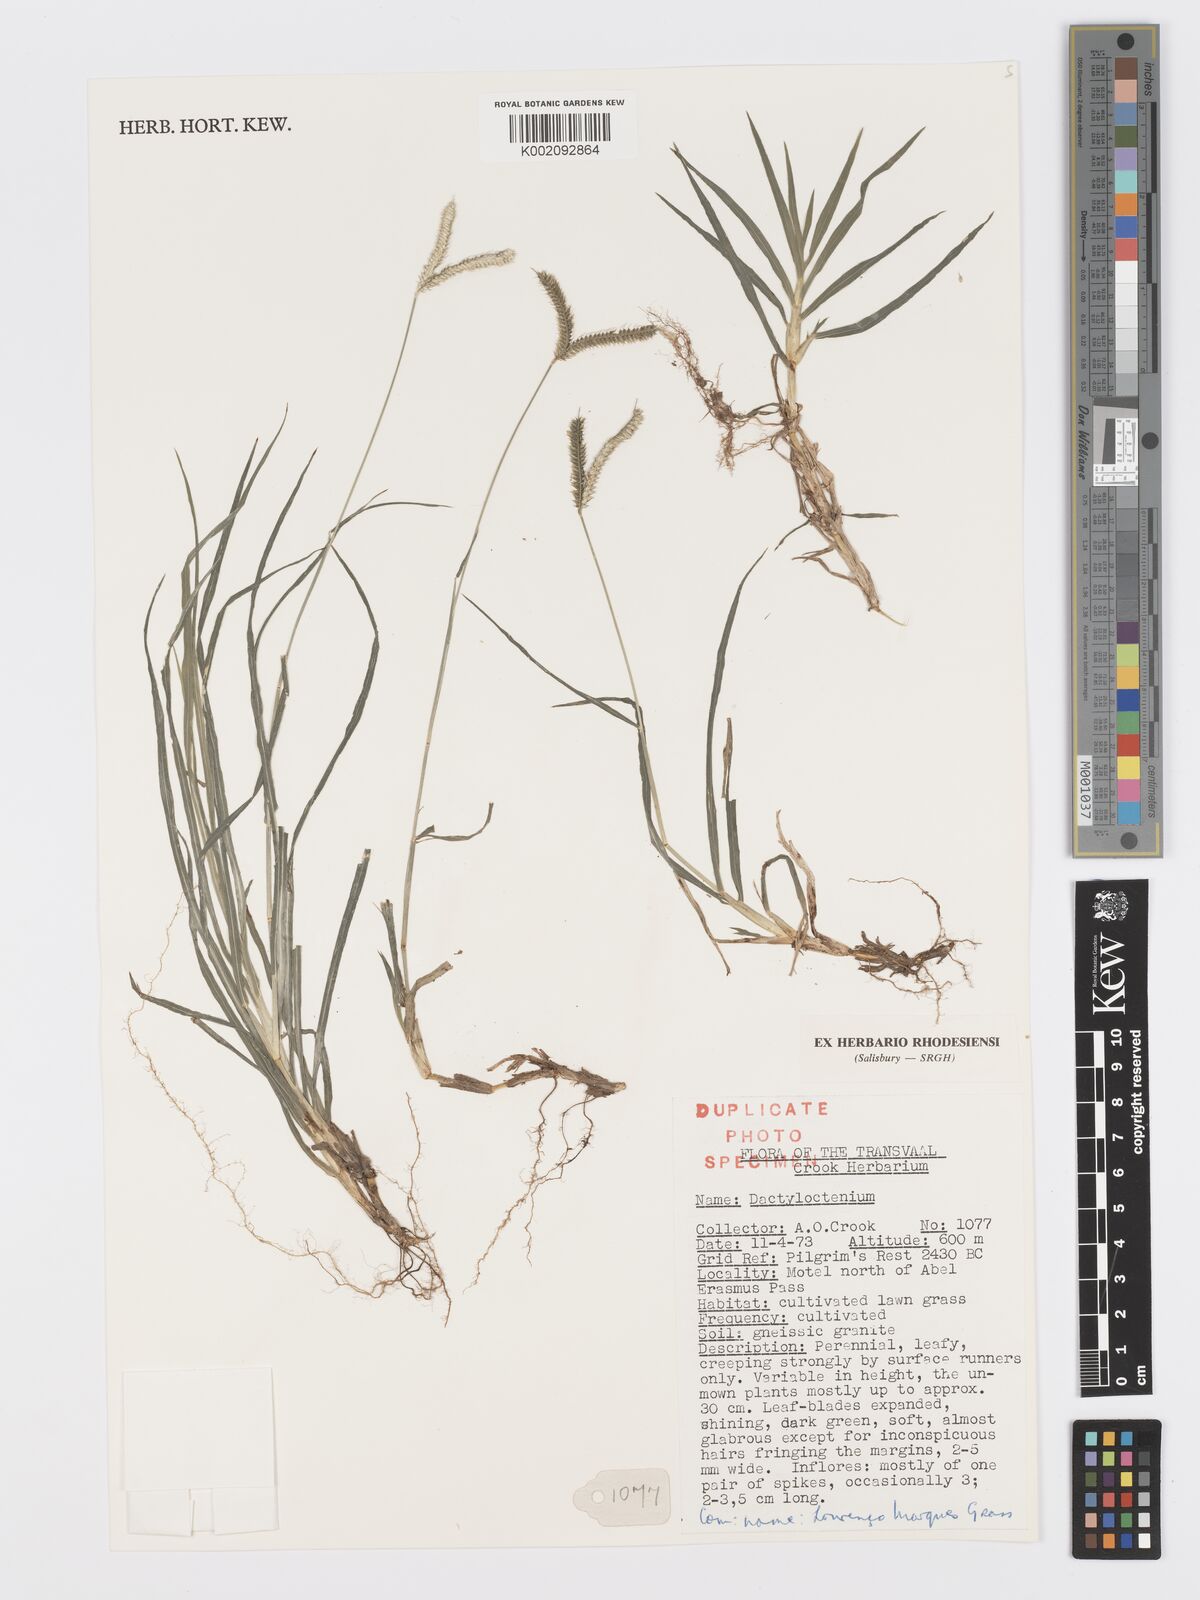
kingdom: Plantae
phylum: Tracheophyta
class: Liliopsida
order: Poales
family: Poaceae
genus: Dactyloctenium
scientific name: Dactyloctenium aegyptium
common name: Egyptian grass
